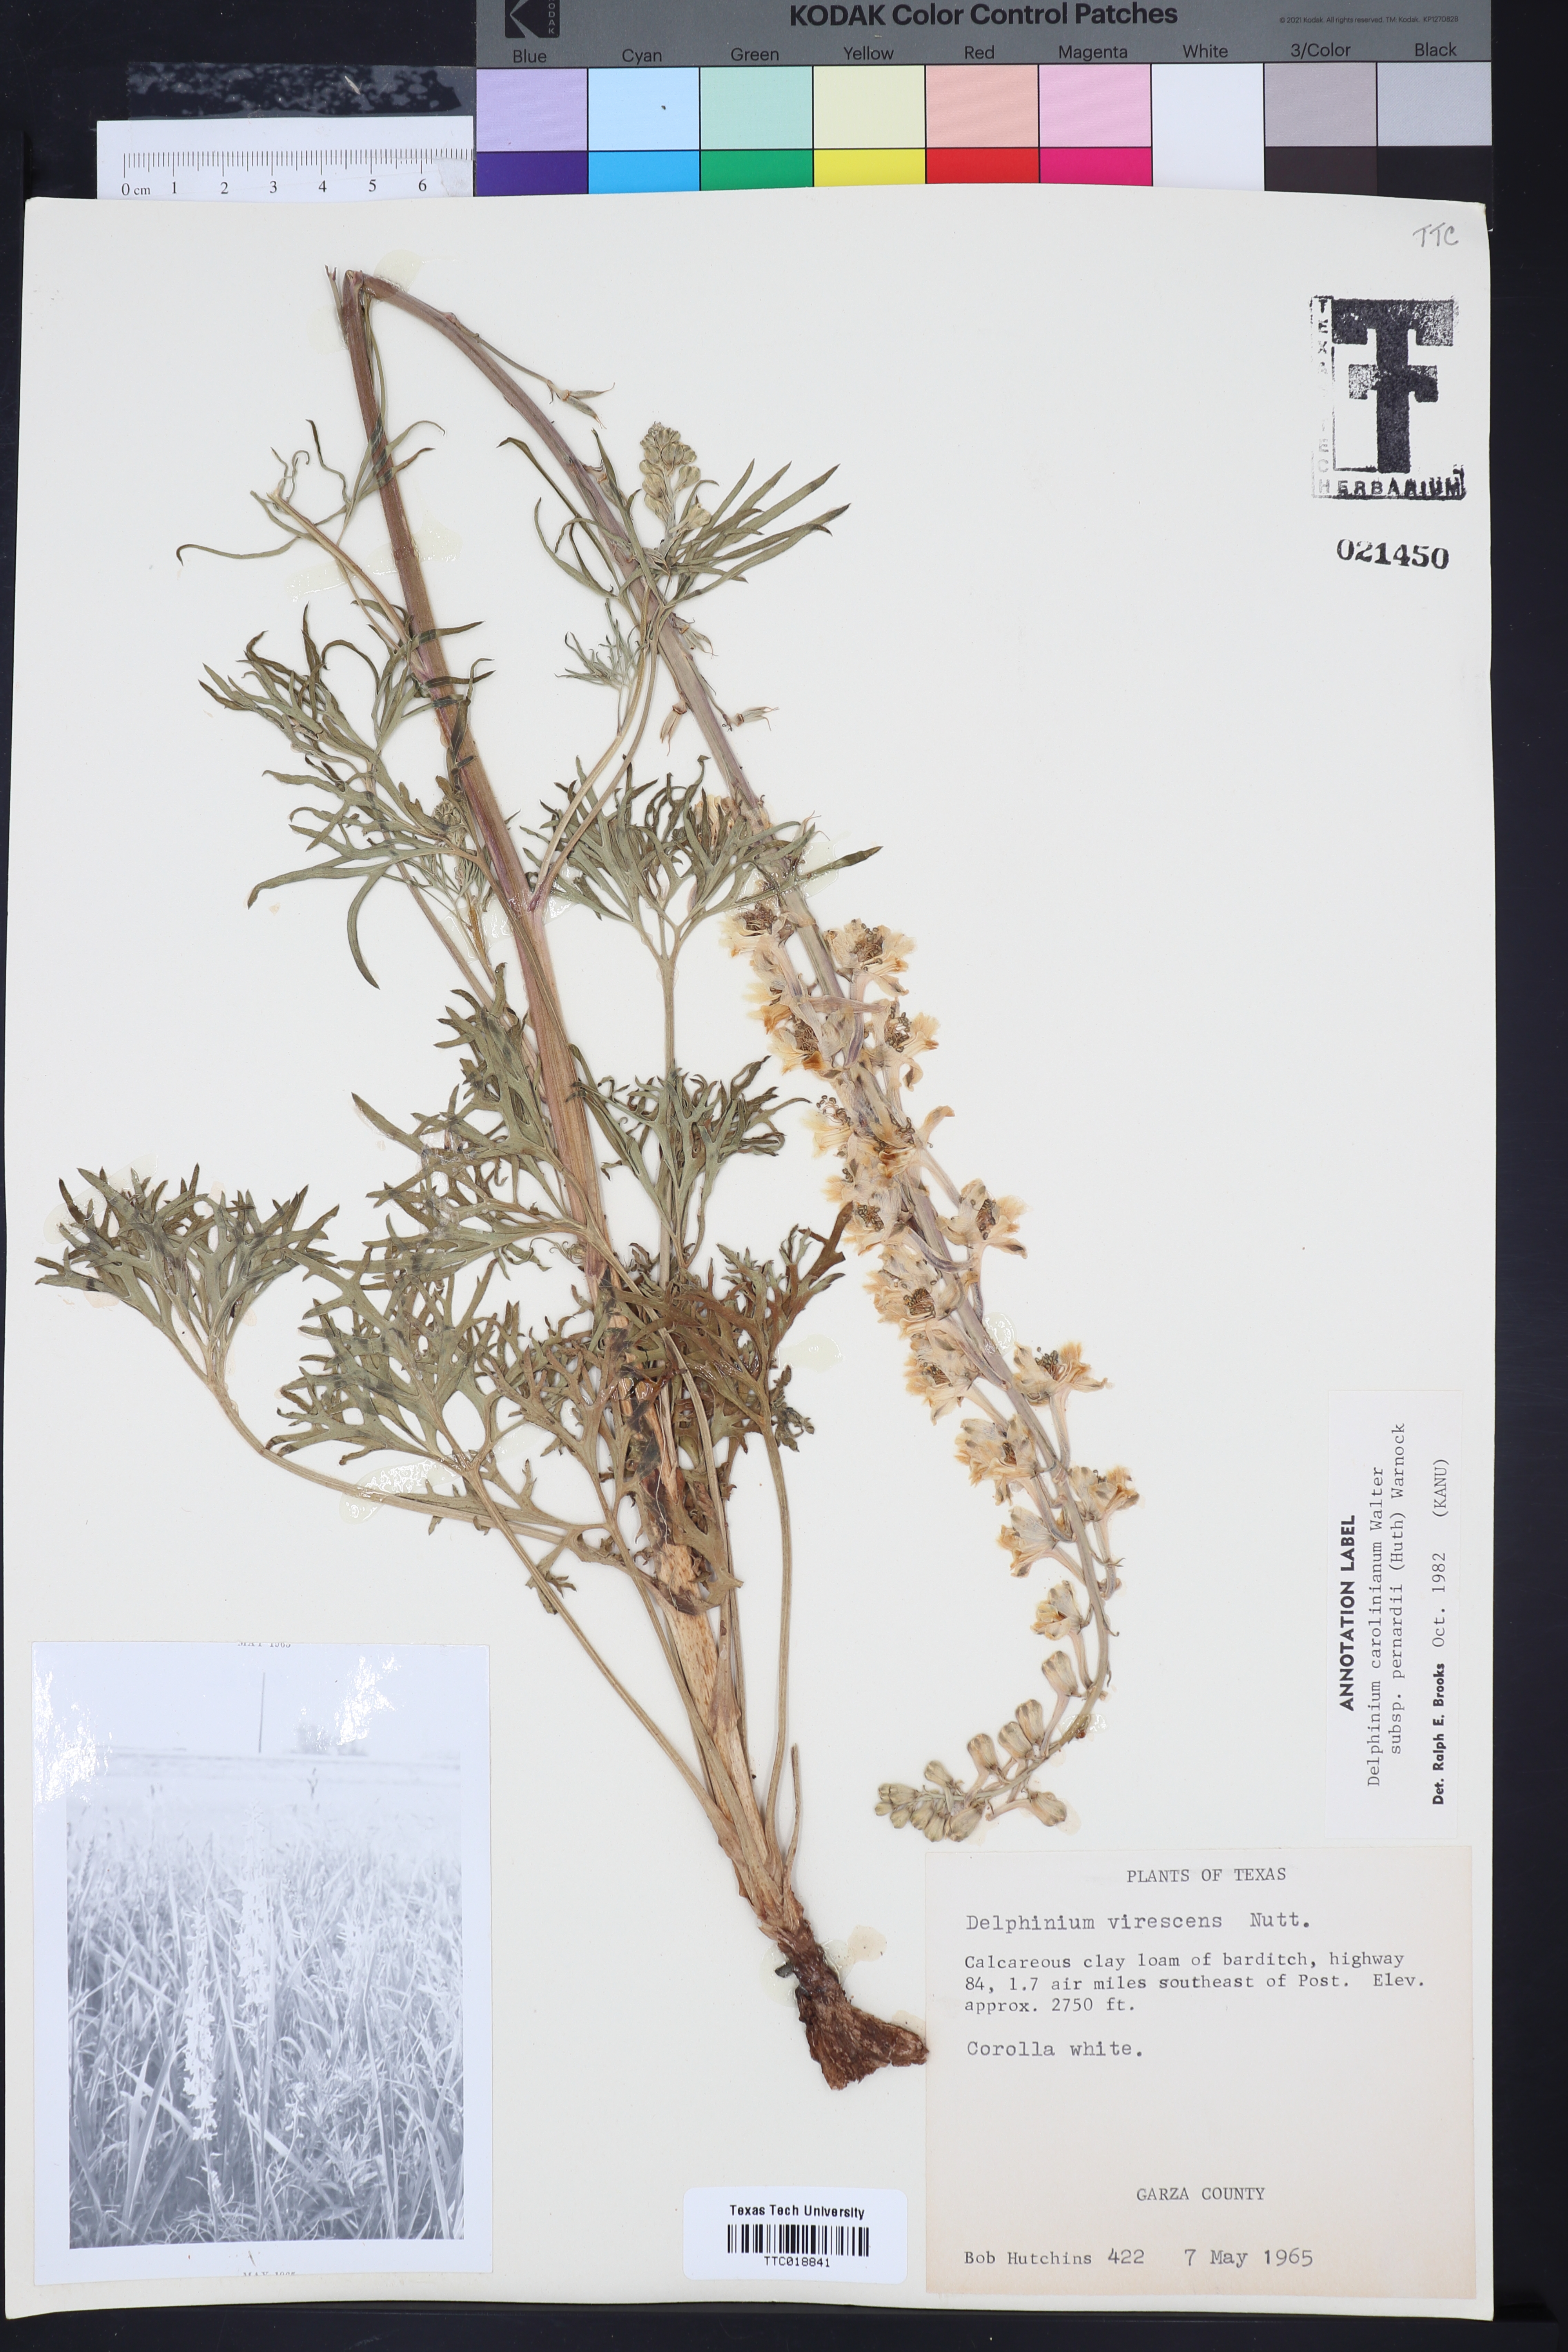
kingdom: Plantae
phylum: Tracheophyta
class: Magnoliopsida
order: Ranunculales
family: Ranunculaceae
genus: Delphinium
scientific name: Delphinium carolinianum
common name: Carolina larkspur
